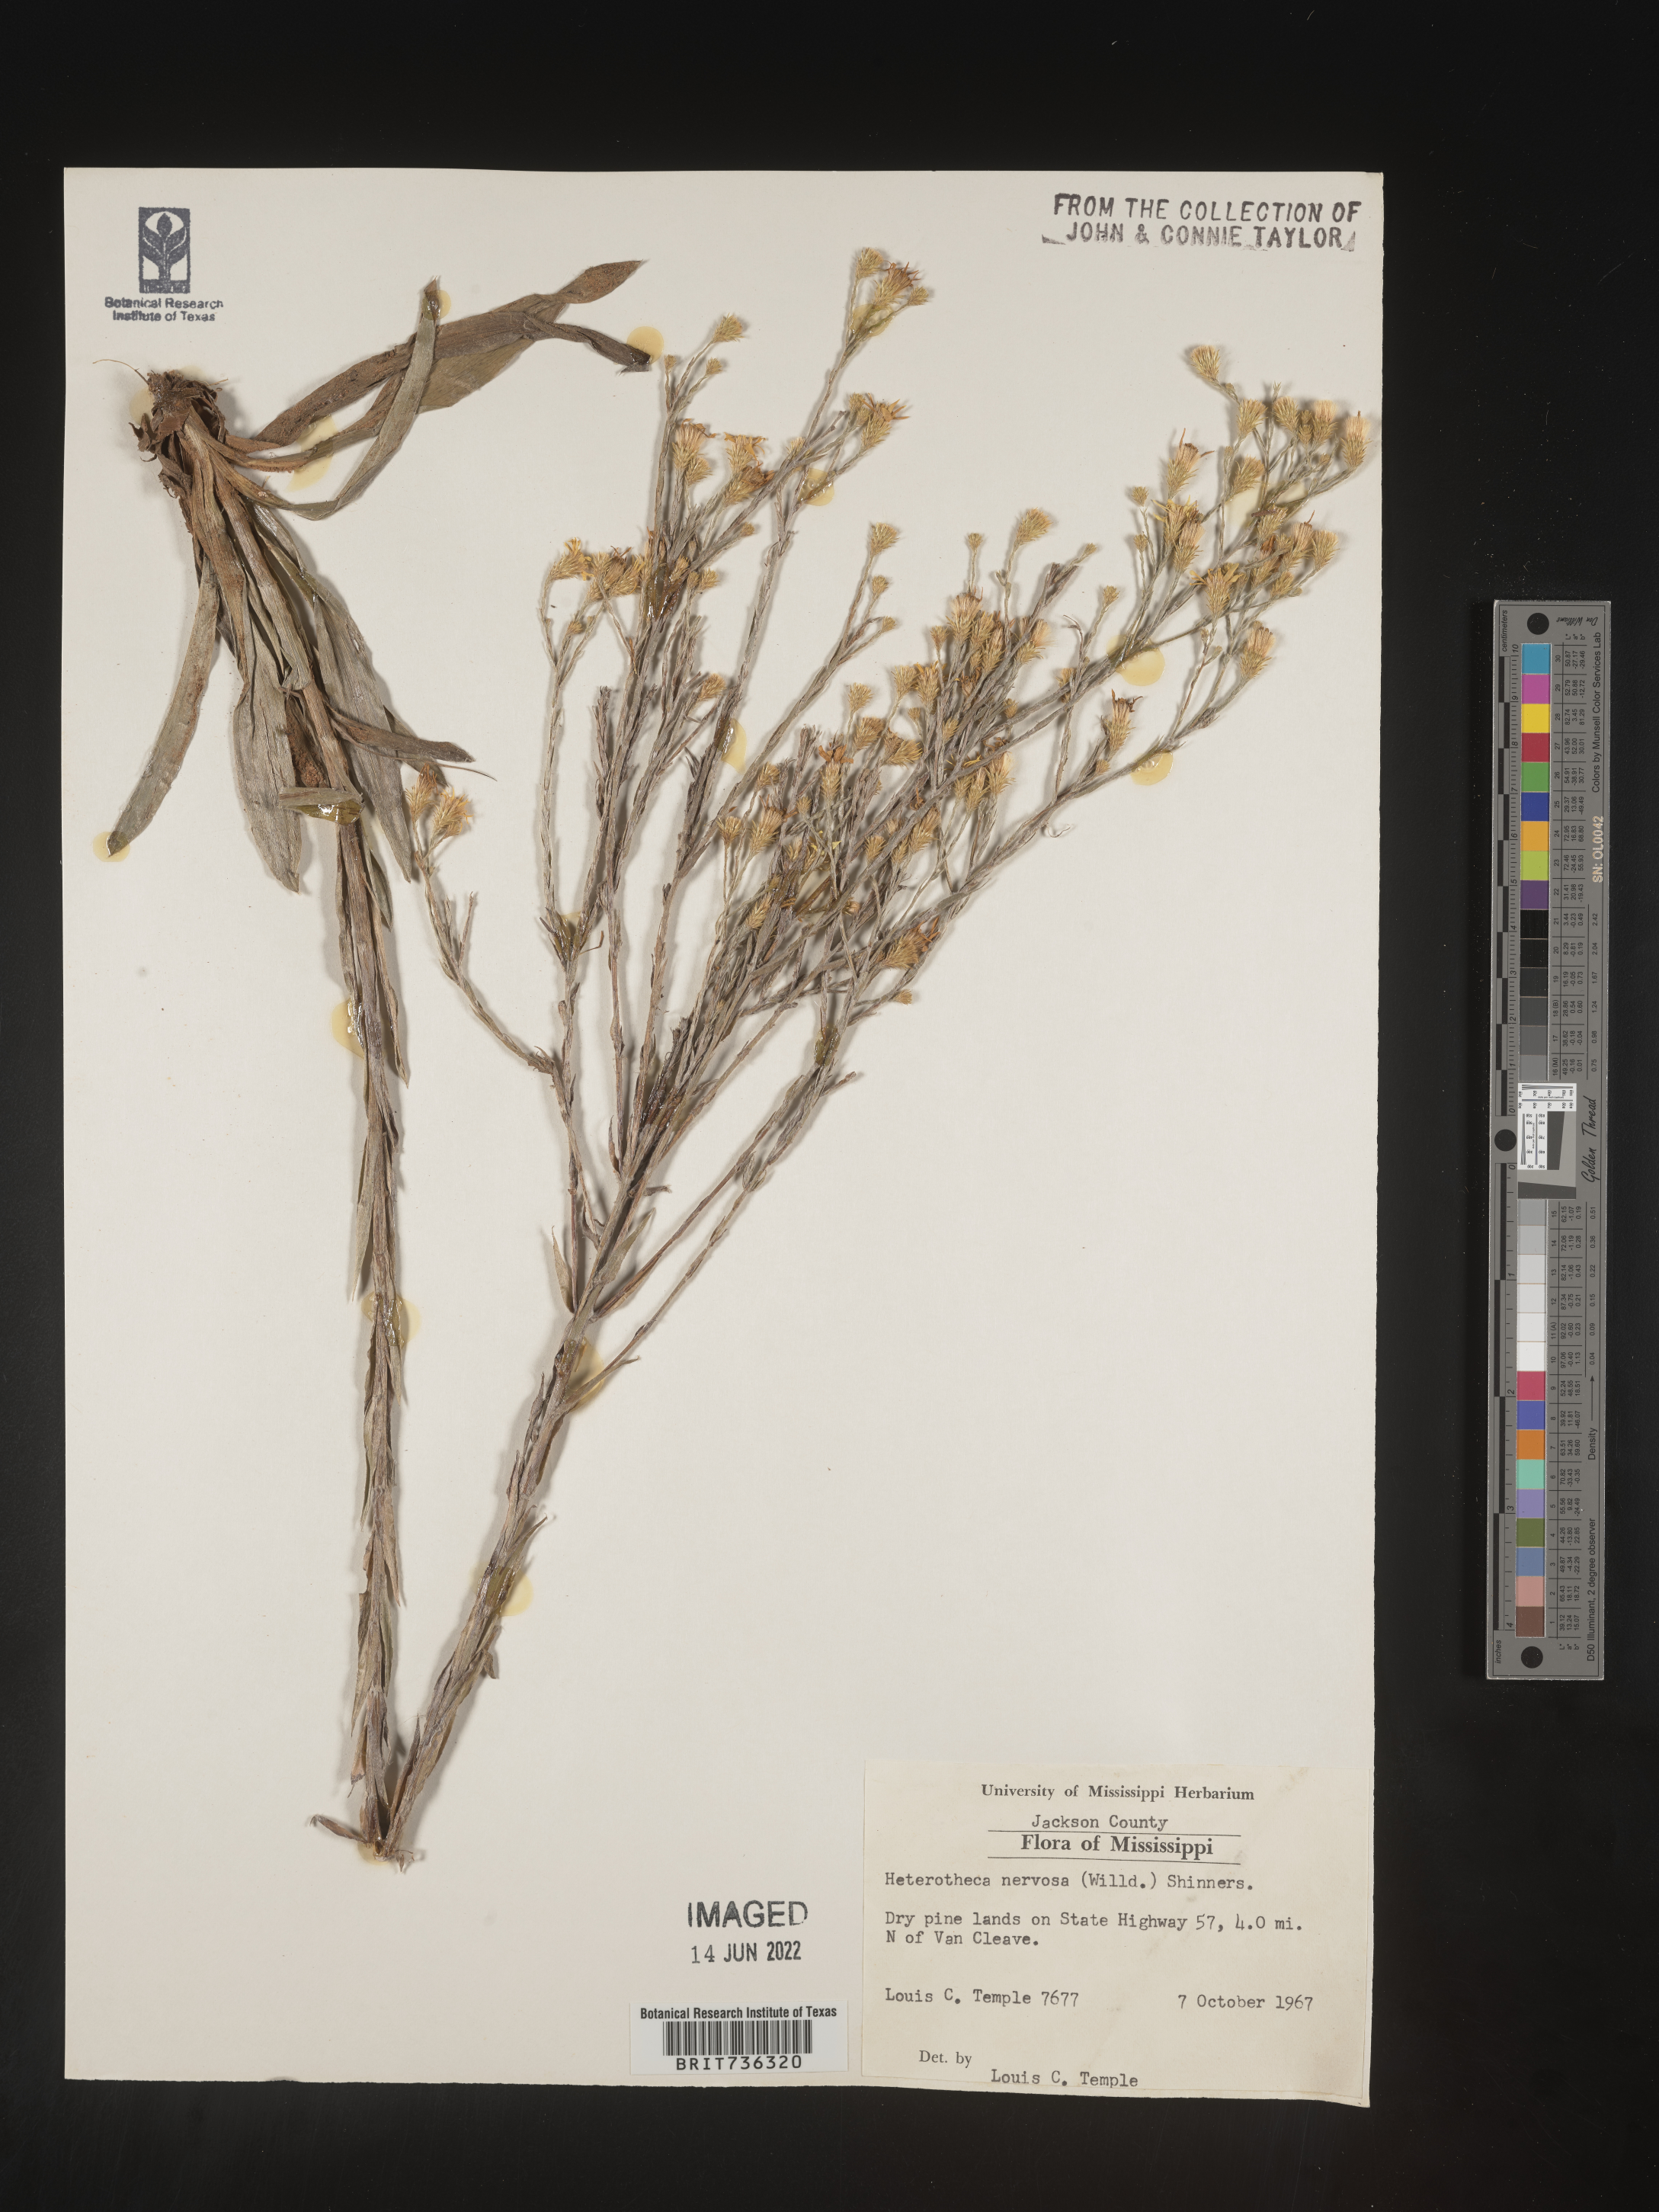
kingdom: Plantae
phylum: Tracheophyta
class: Magnoliopsida
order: Asterales
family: Asteraceae
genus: Pityopsis
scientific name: Pityopsis microcephala
